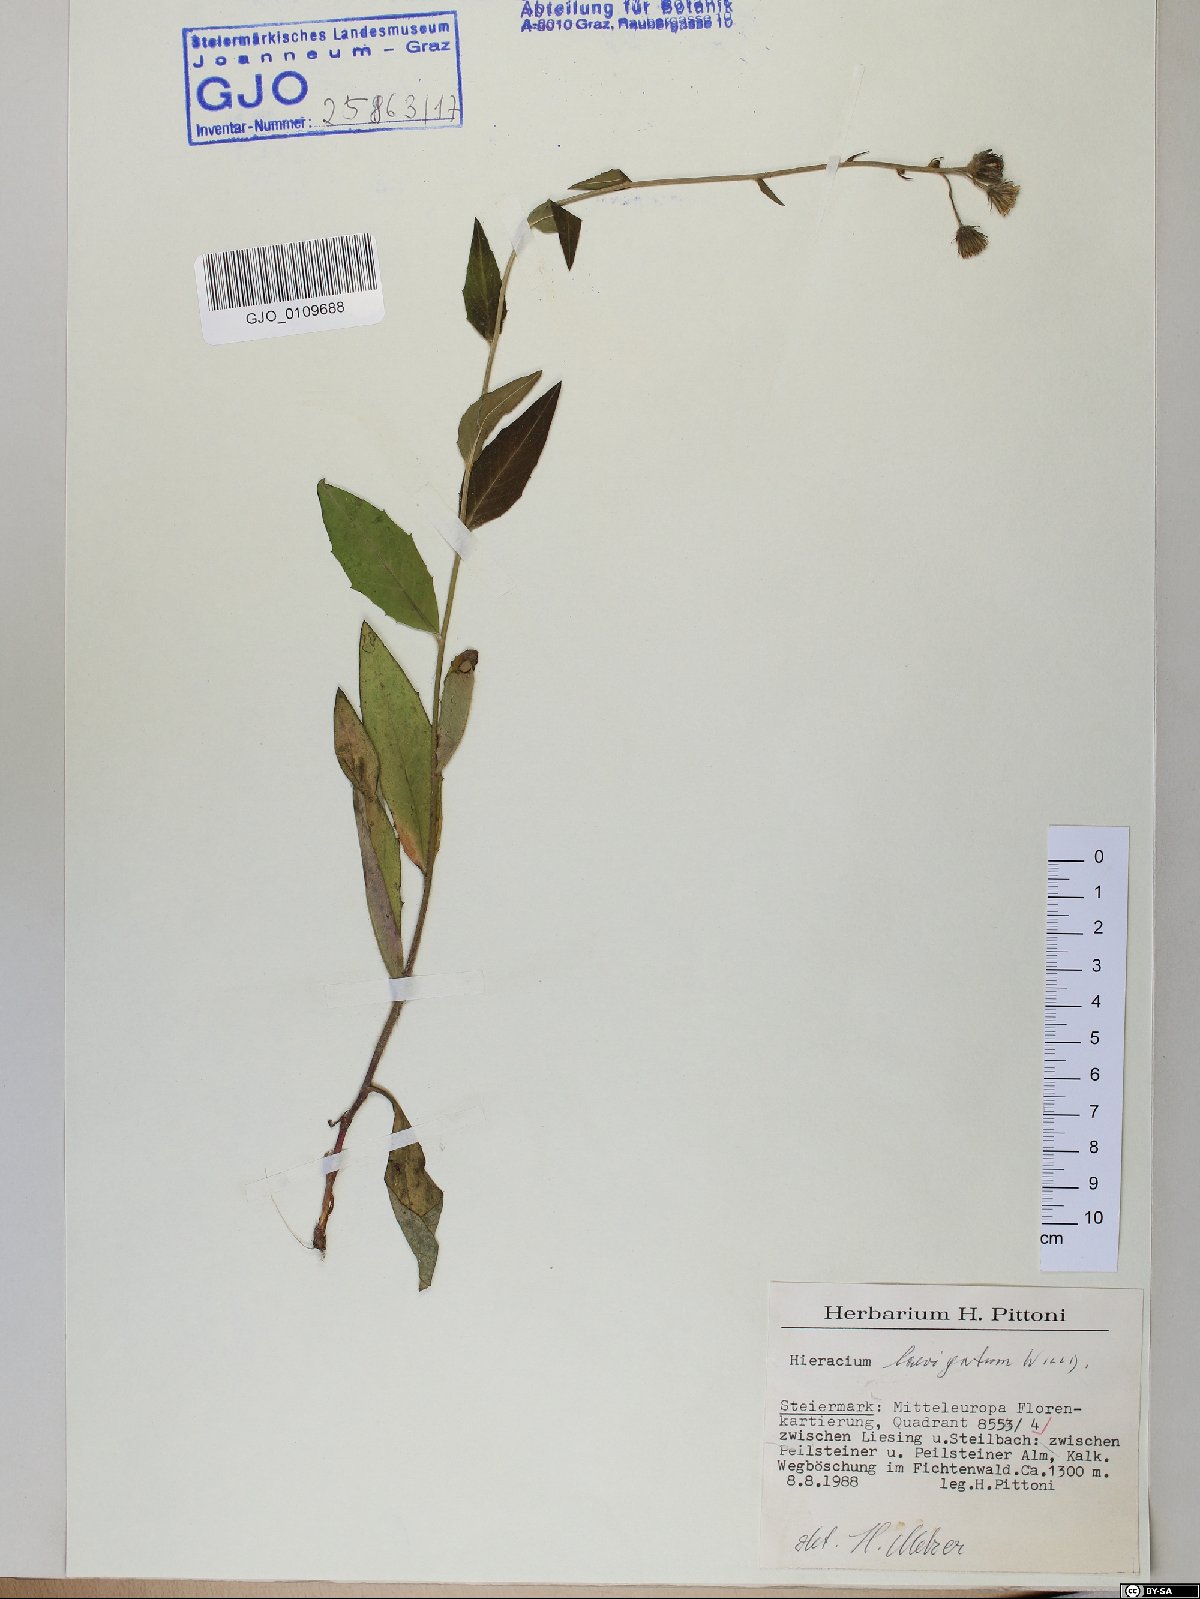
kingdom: Plantae
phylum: Tracheophyta
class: Magnoliopsida
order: Asterales
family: Asteraceae
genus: Hieracium
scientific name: Hieracium laevigatum
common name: Smooth hawkweed
